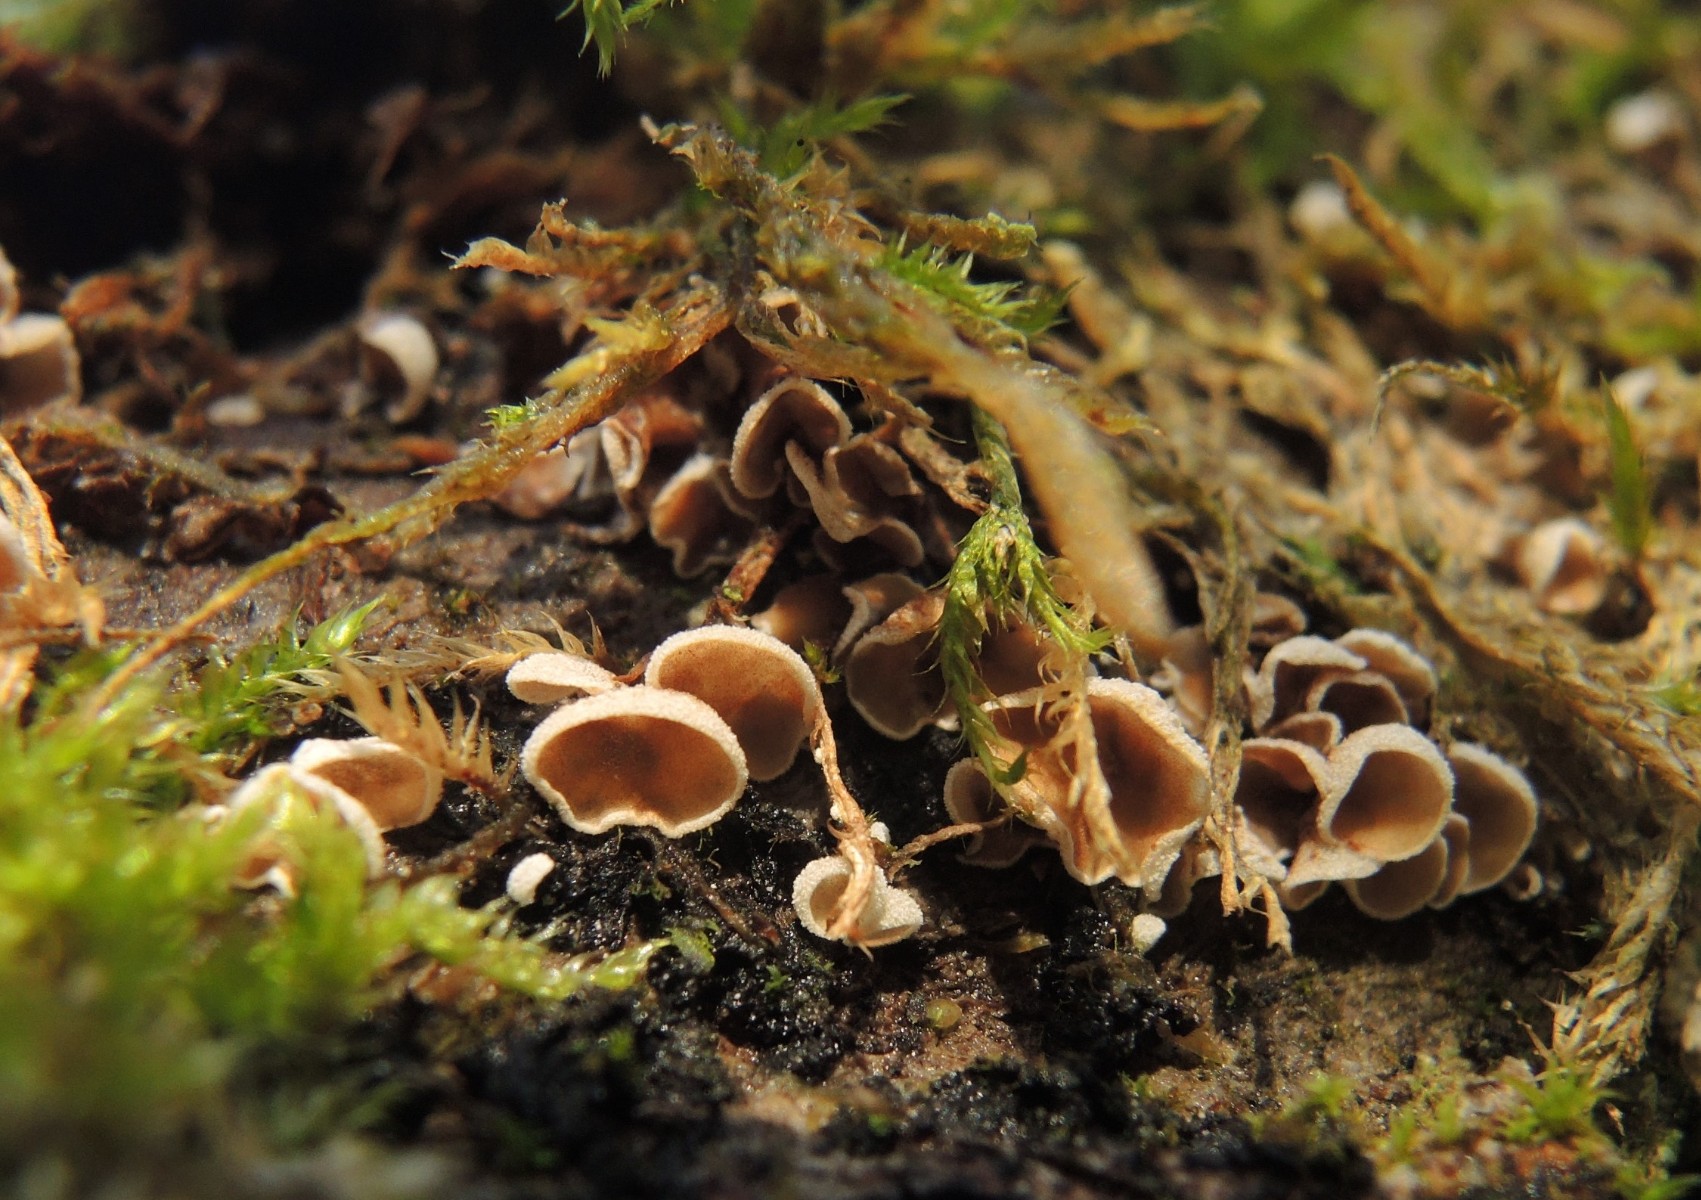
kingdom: Fungi
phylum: Basidiomycota
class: Agaricomycetes
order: Agaricales
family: Chromocyphellaceae
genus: Chromocyphella
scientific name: Chromocyphella muscicola
